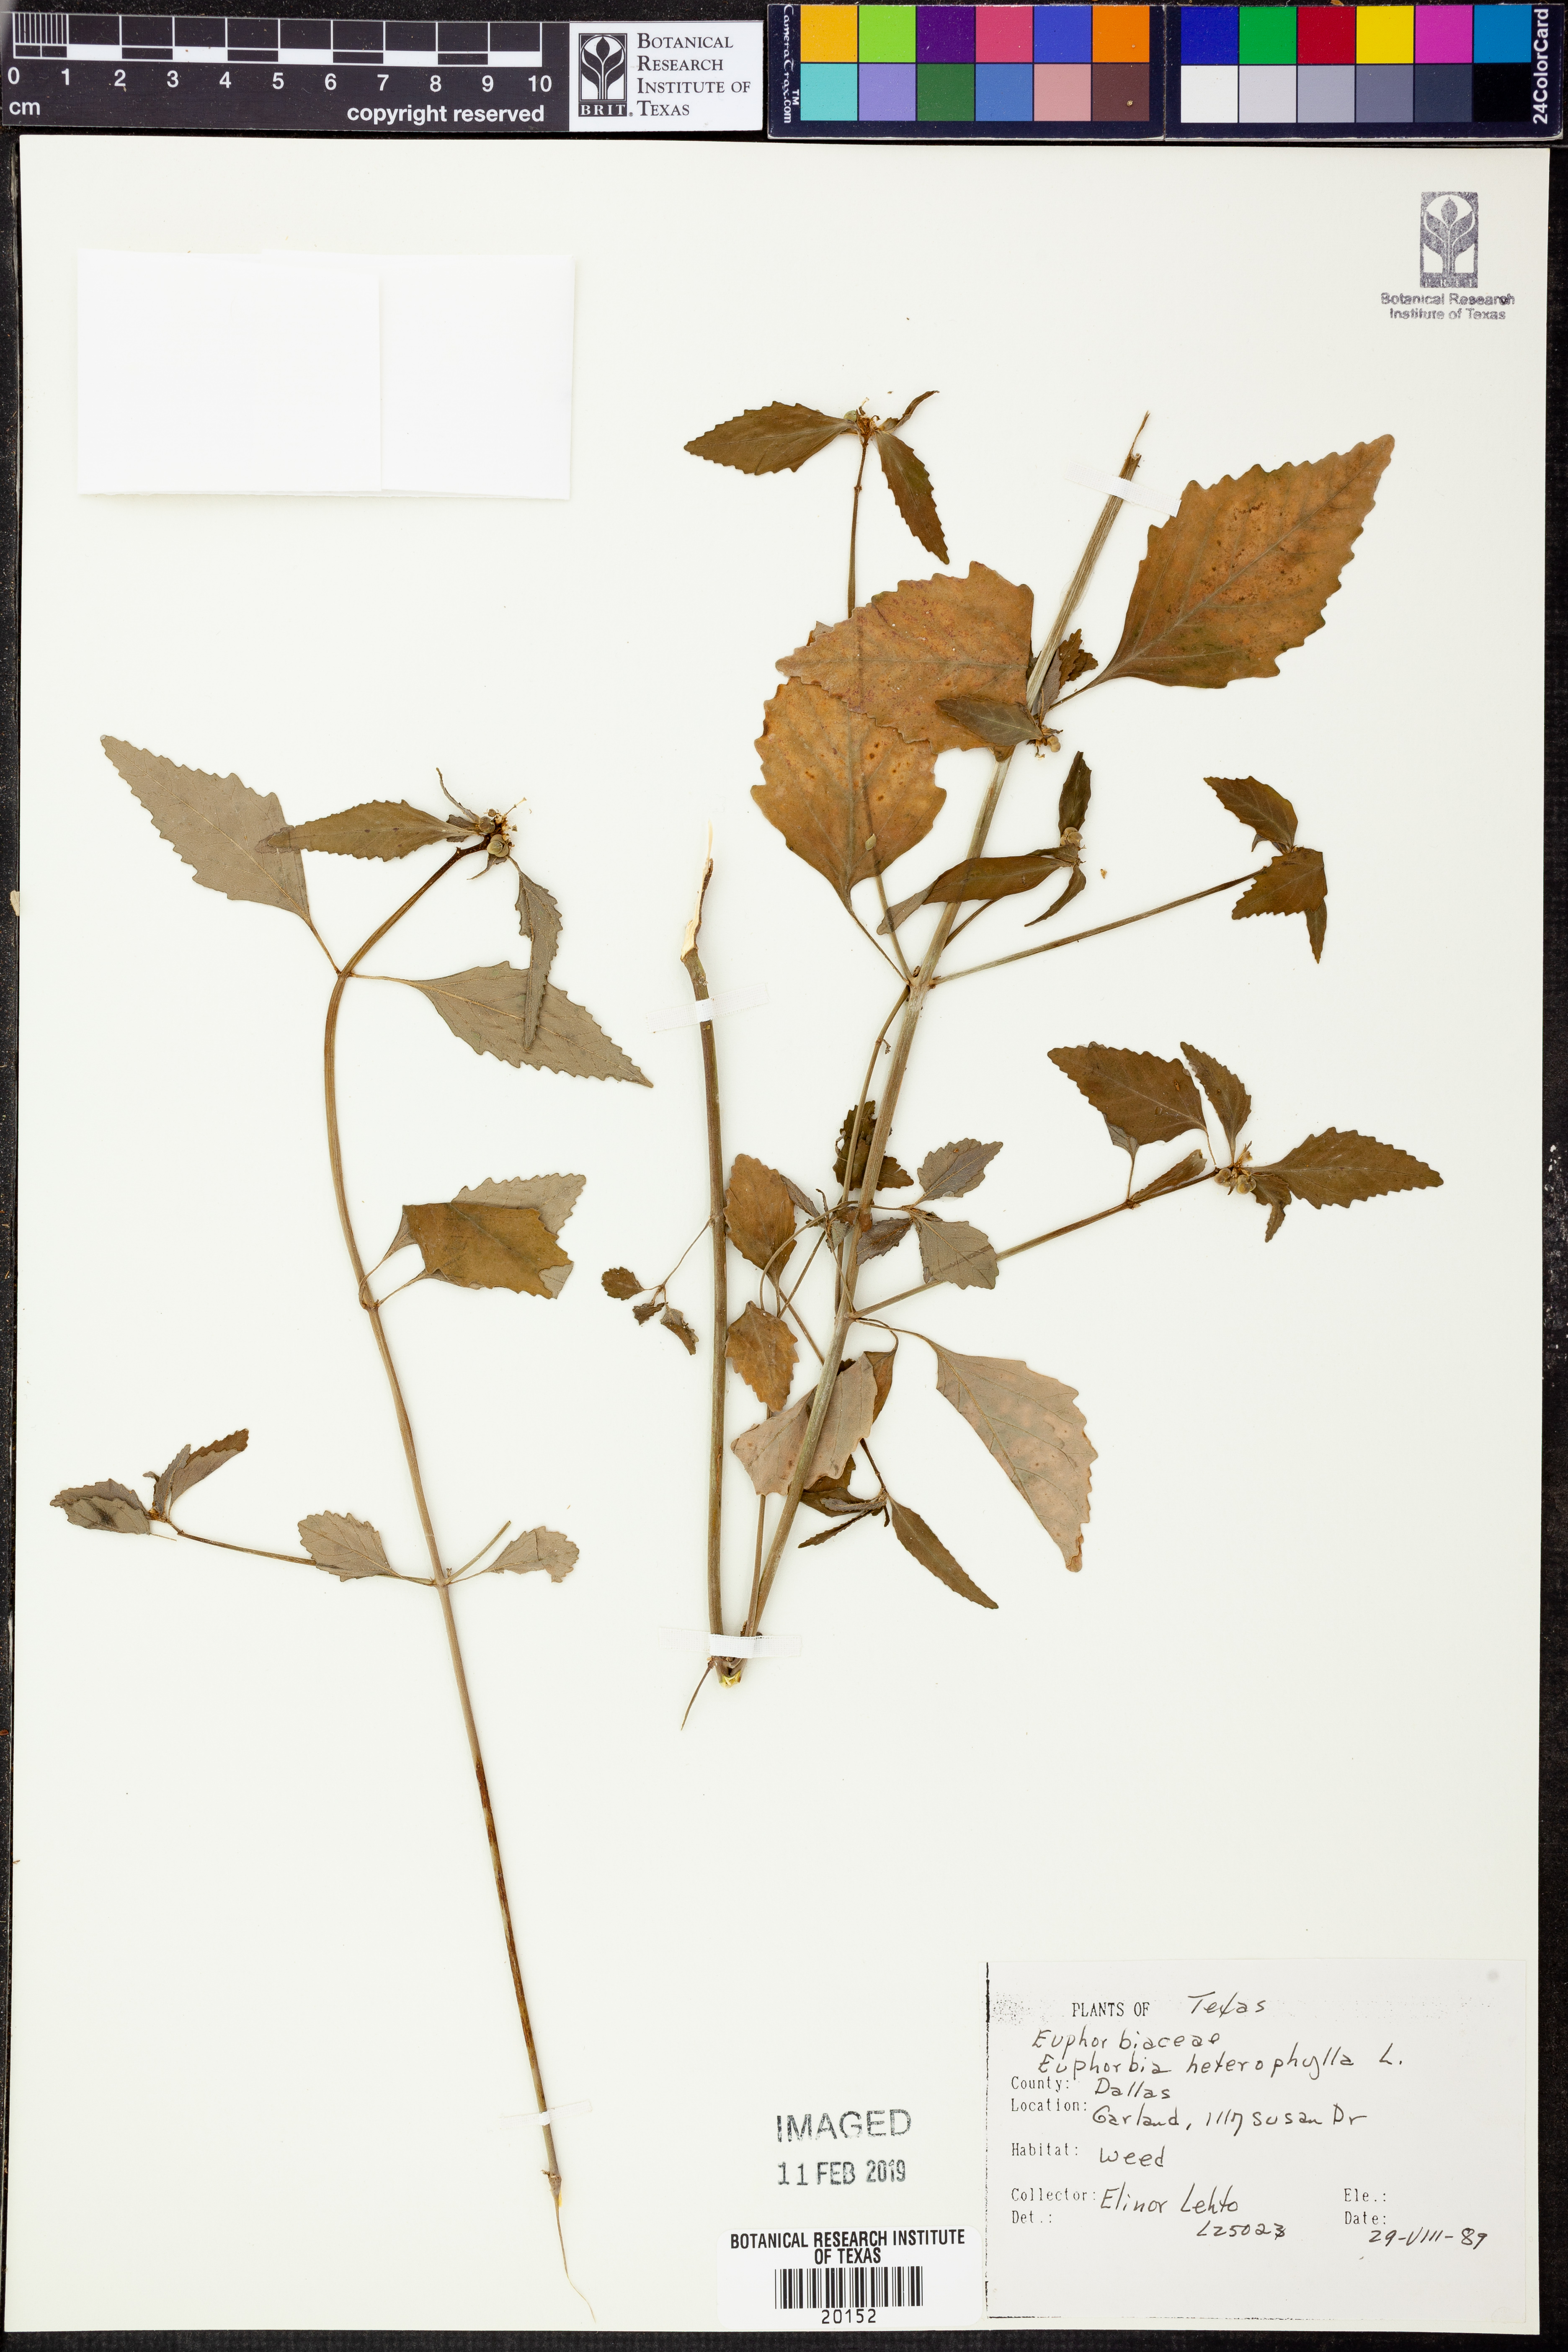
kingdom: Plantae
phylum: Tracheophyta
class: Magnoliopsida
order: Malpighiales
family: Euphorbiaceae
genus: Euphorbia
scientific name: Euphorbia heterophylla
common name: Mexican fireplant
